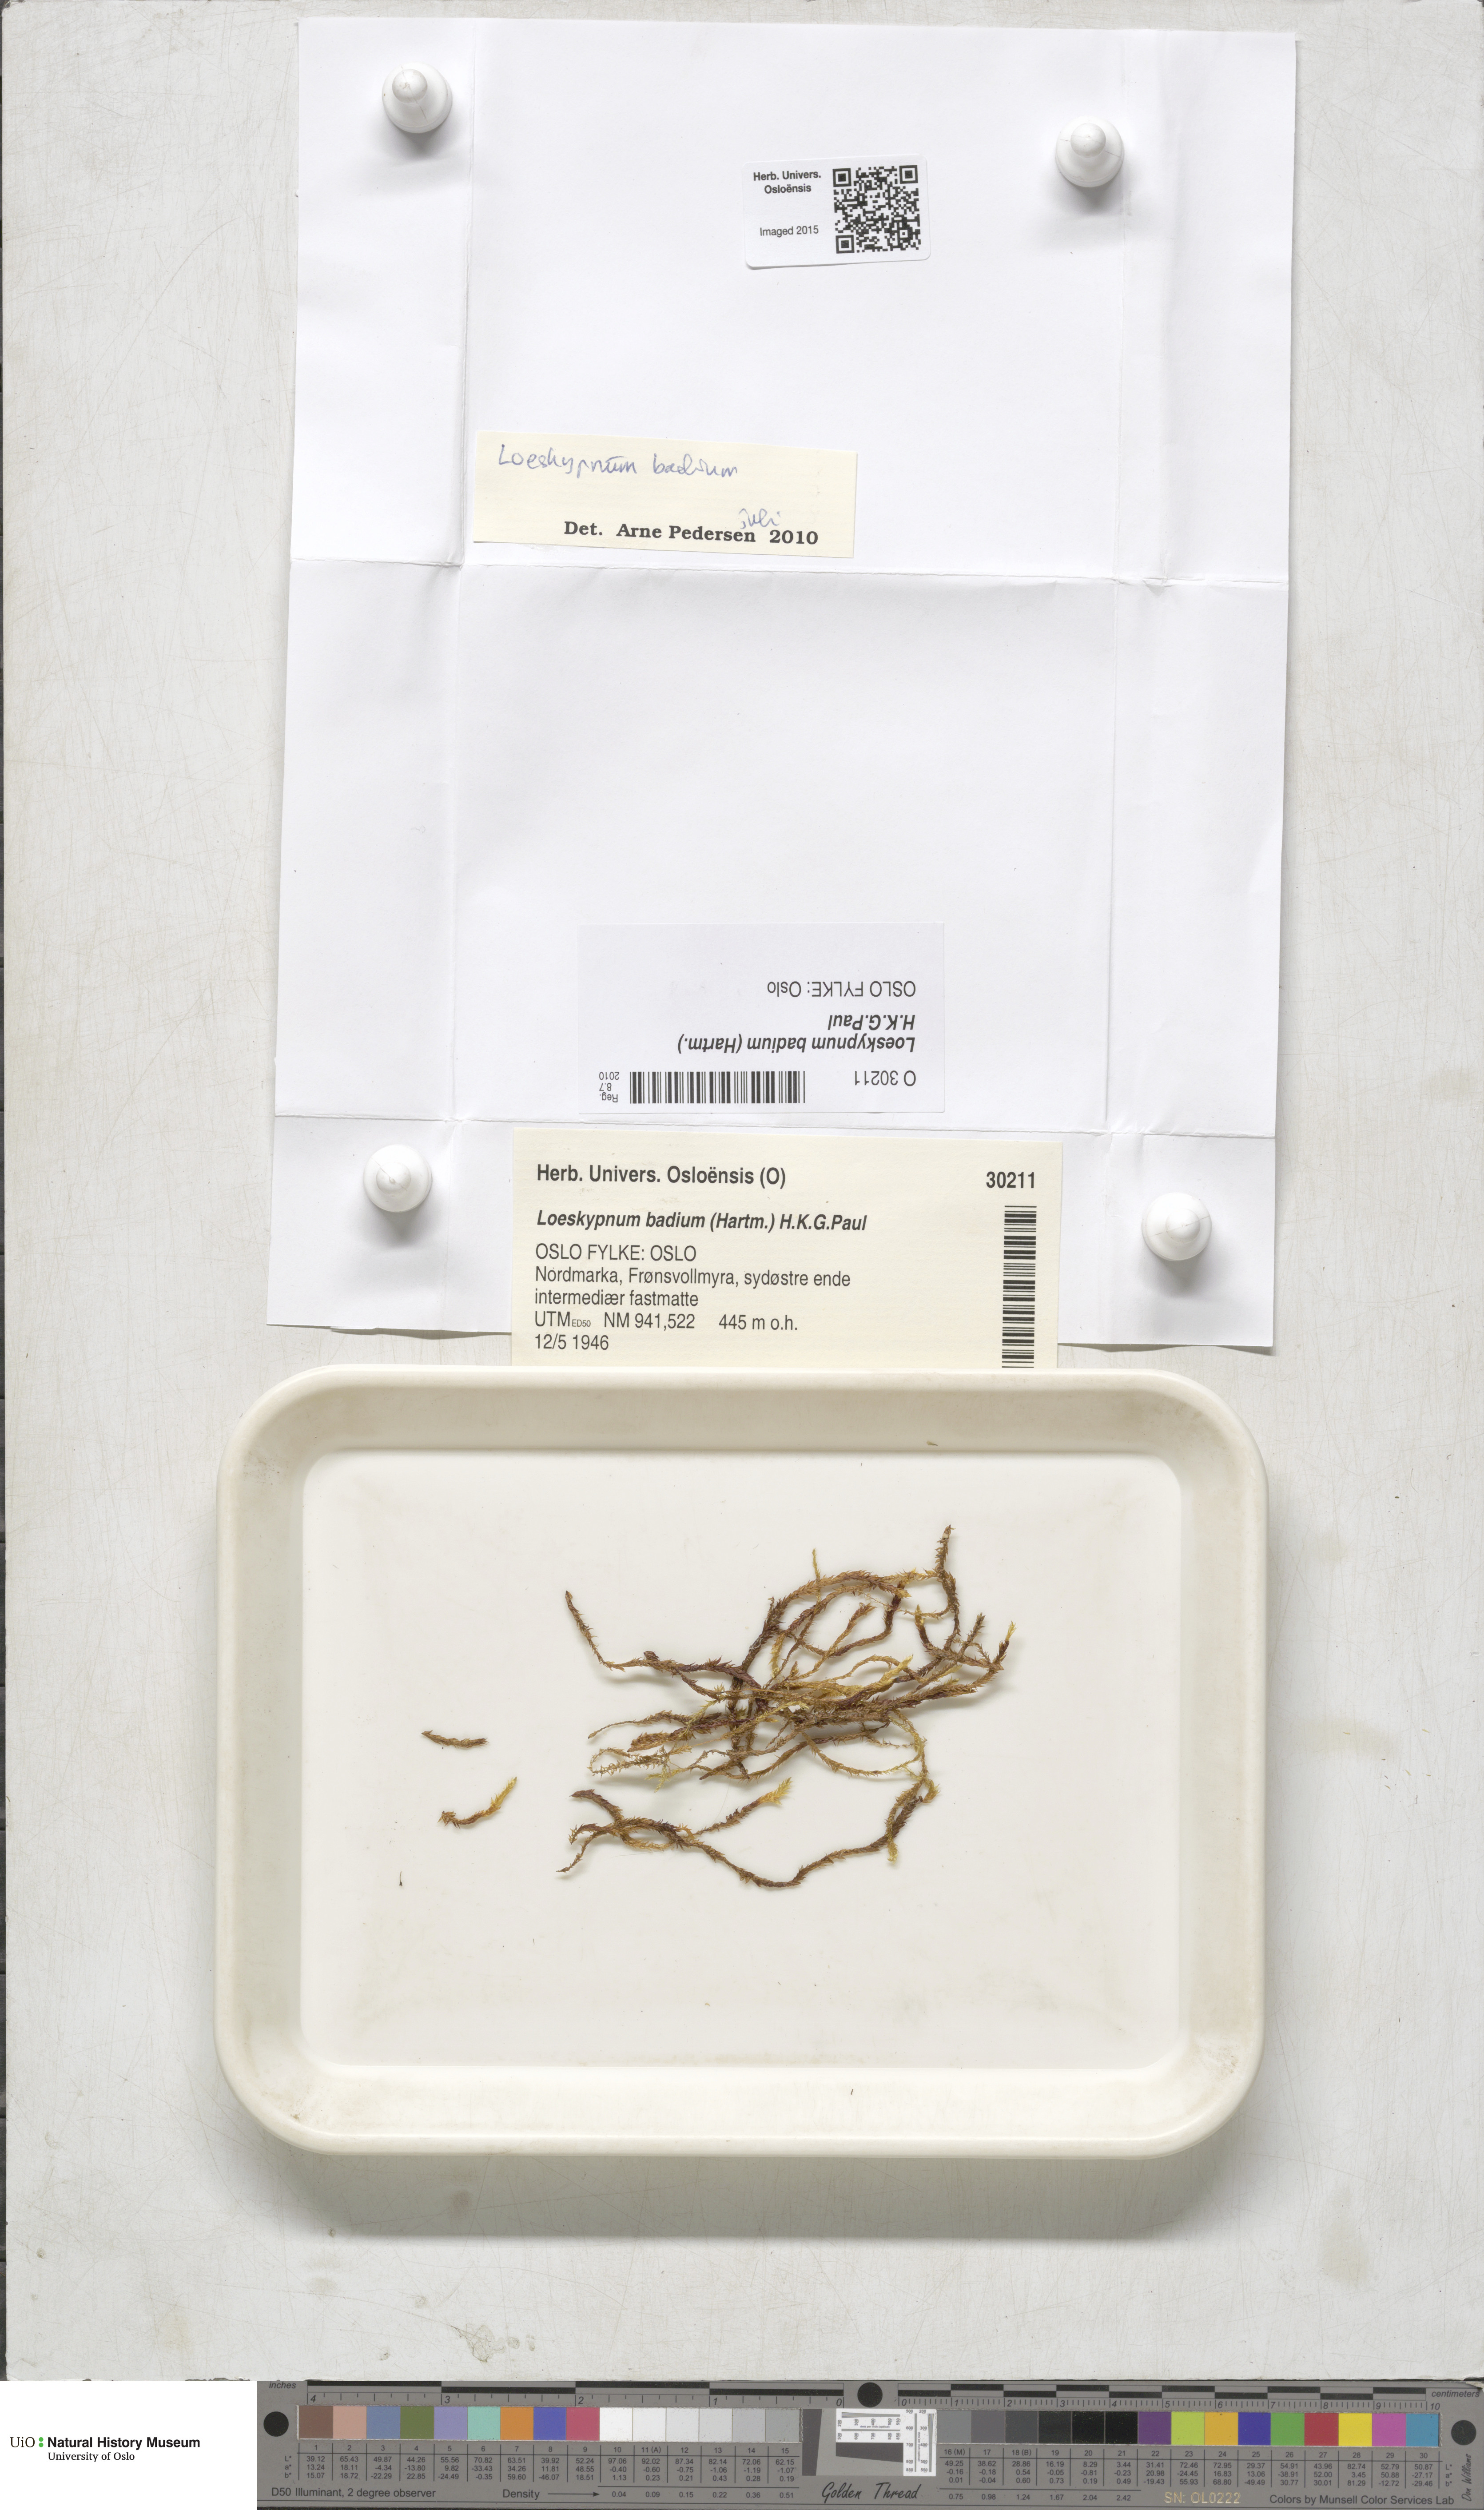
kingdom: Plantae
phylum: Bryophyta
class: Bryopsida
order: Hypnales
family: Calliergonaceae
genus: Loeskypnum
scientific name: Loeskypnum badium
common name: Sickle-leaved loeskypnum
